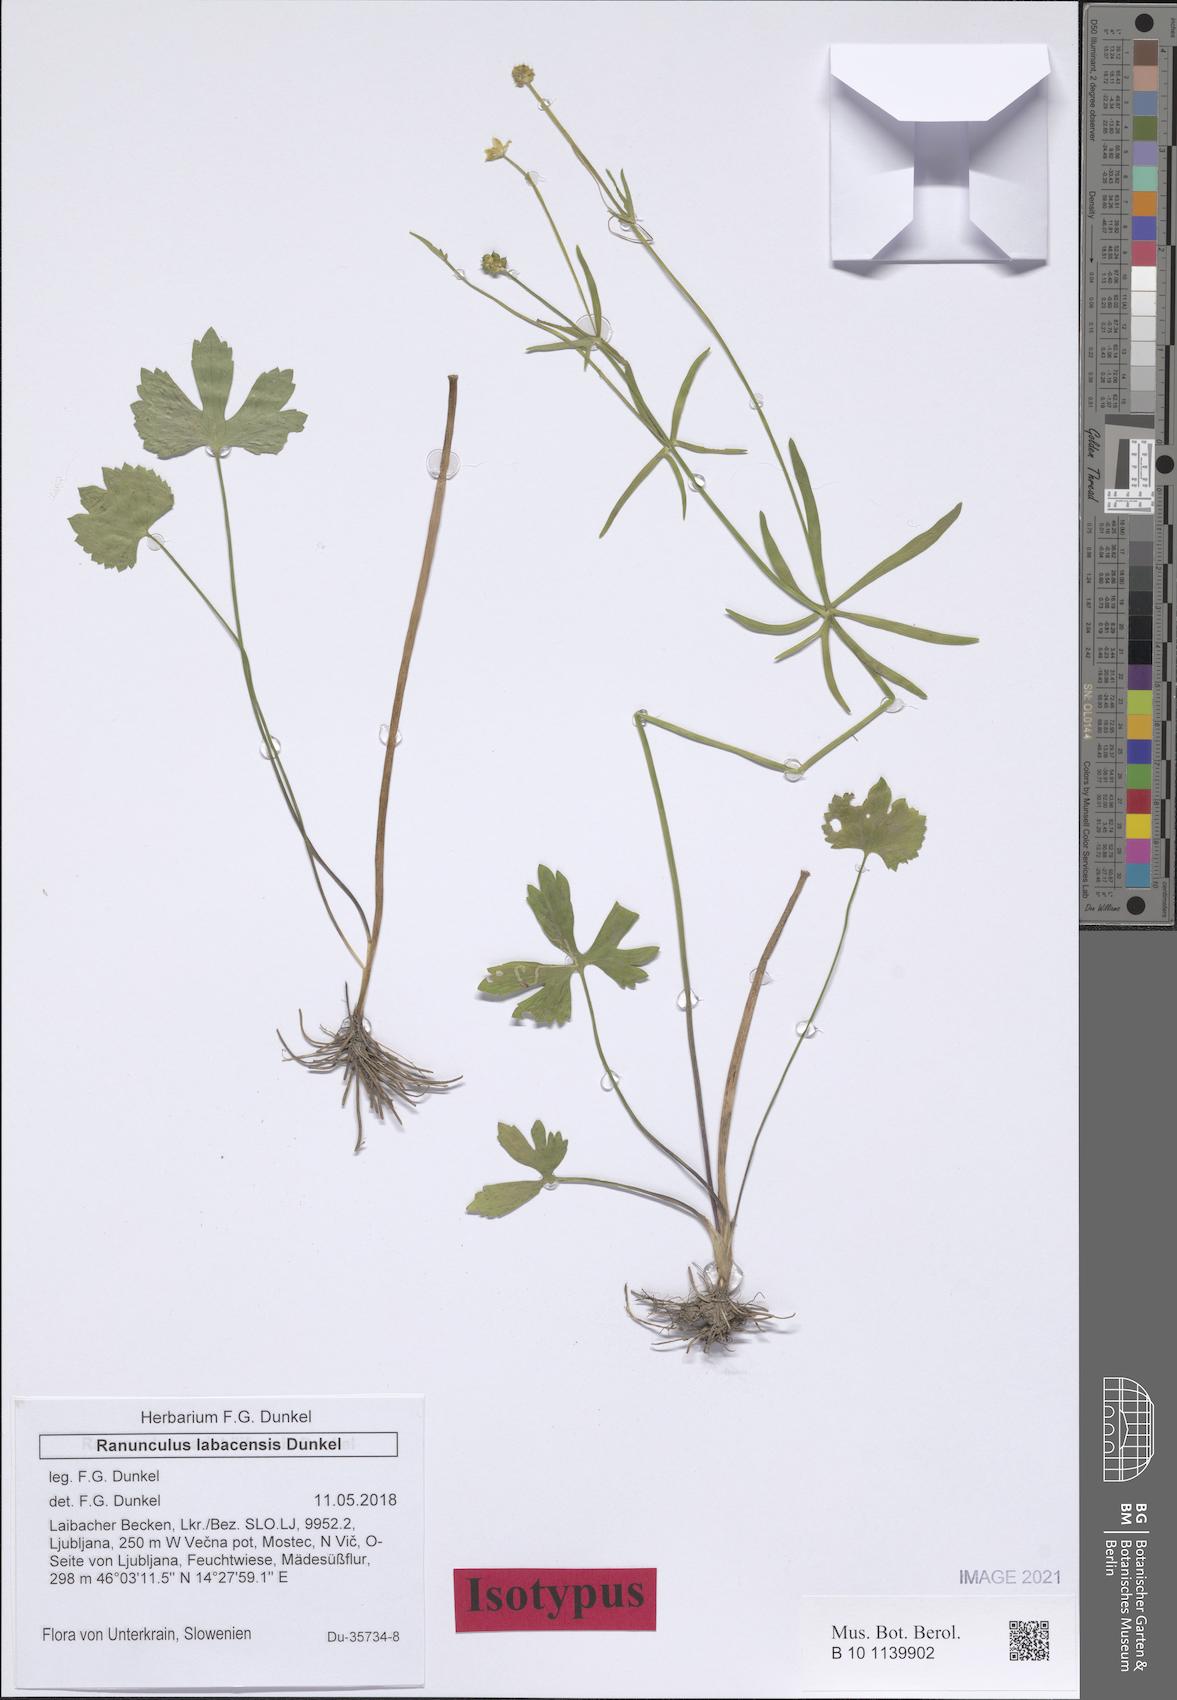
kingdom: Plantae
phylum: Tracheophyta
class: Magnoliopsida
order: Ranunculales
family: Ranunculaceae
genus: Ranunculus
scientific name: Ranunculus labacensis
